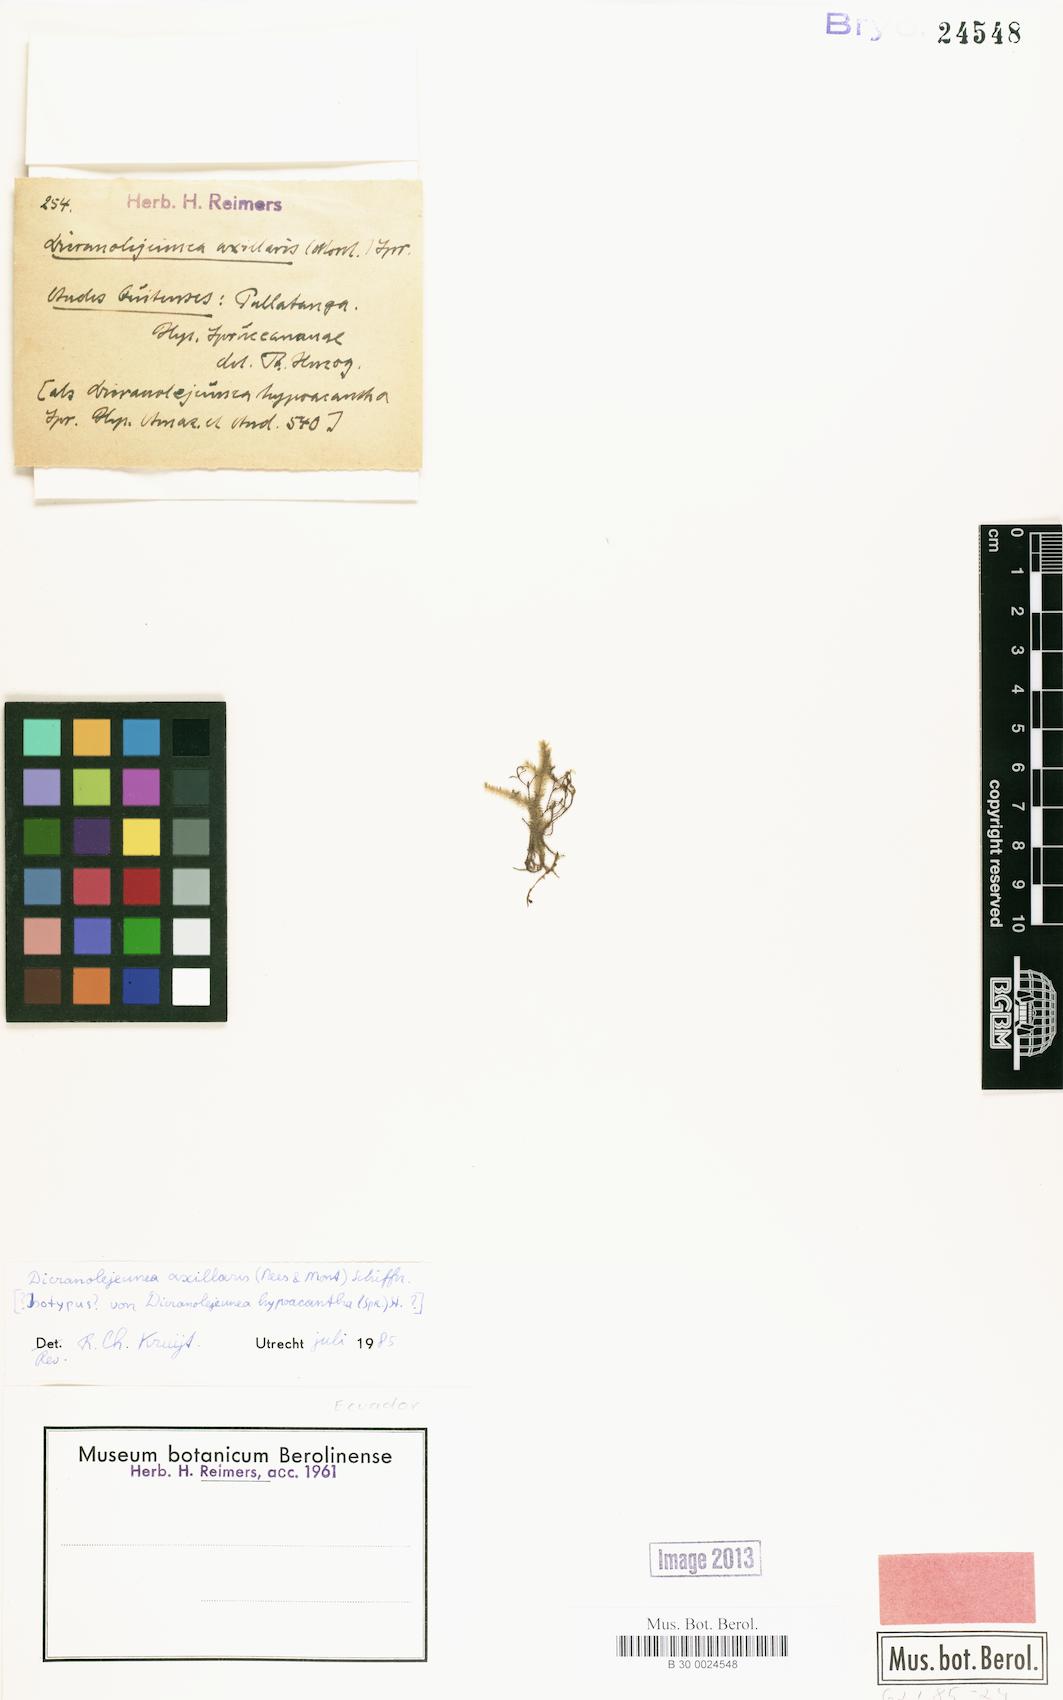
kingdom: Plantae
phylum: Marchantiophyta
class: Jungermanniopsida
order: Porellales
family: Lejeuneaceae
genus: Dicranolejeunea
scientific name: Dicranolejeunea axillaris
